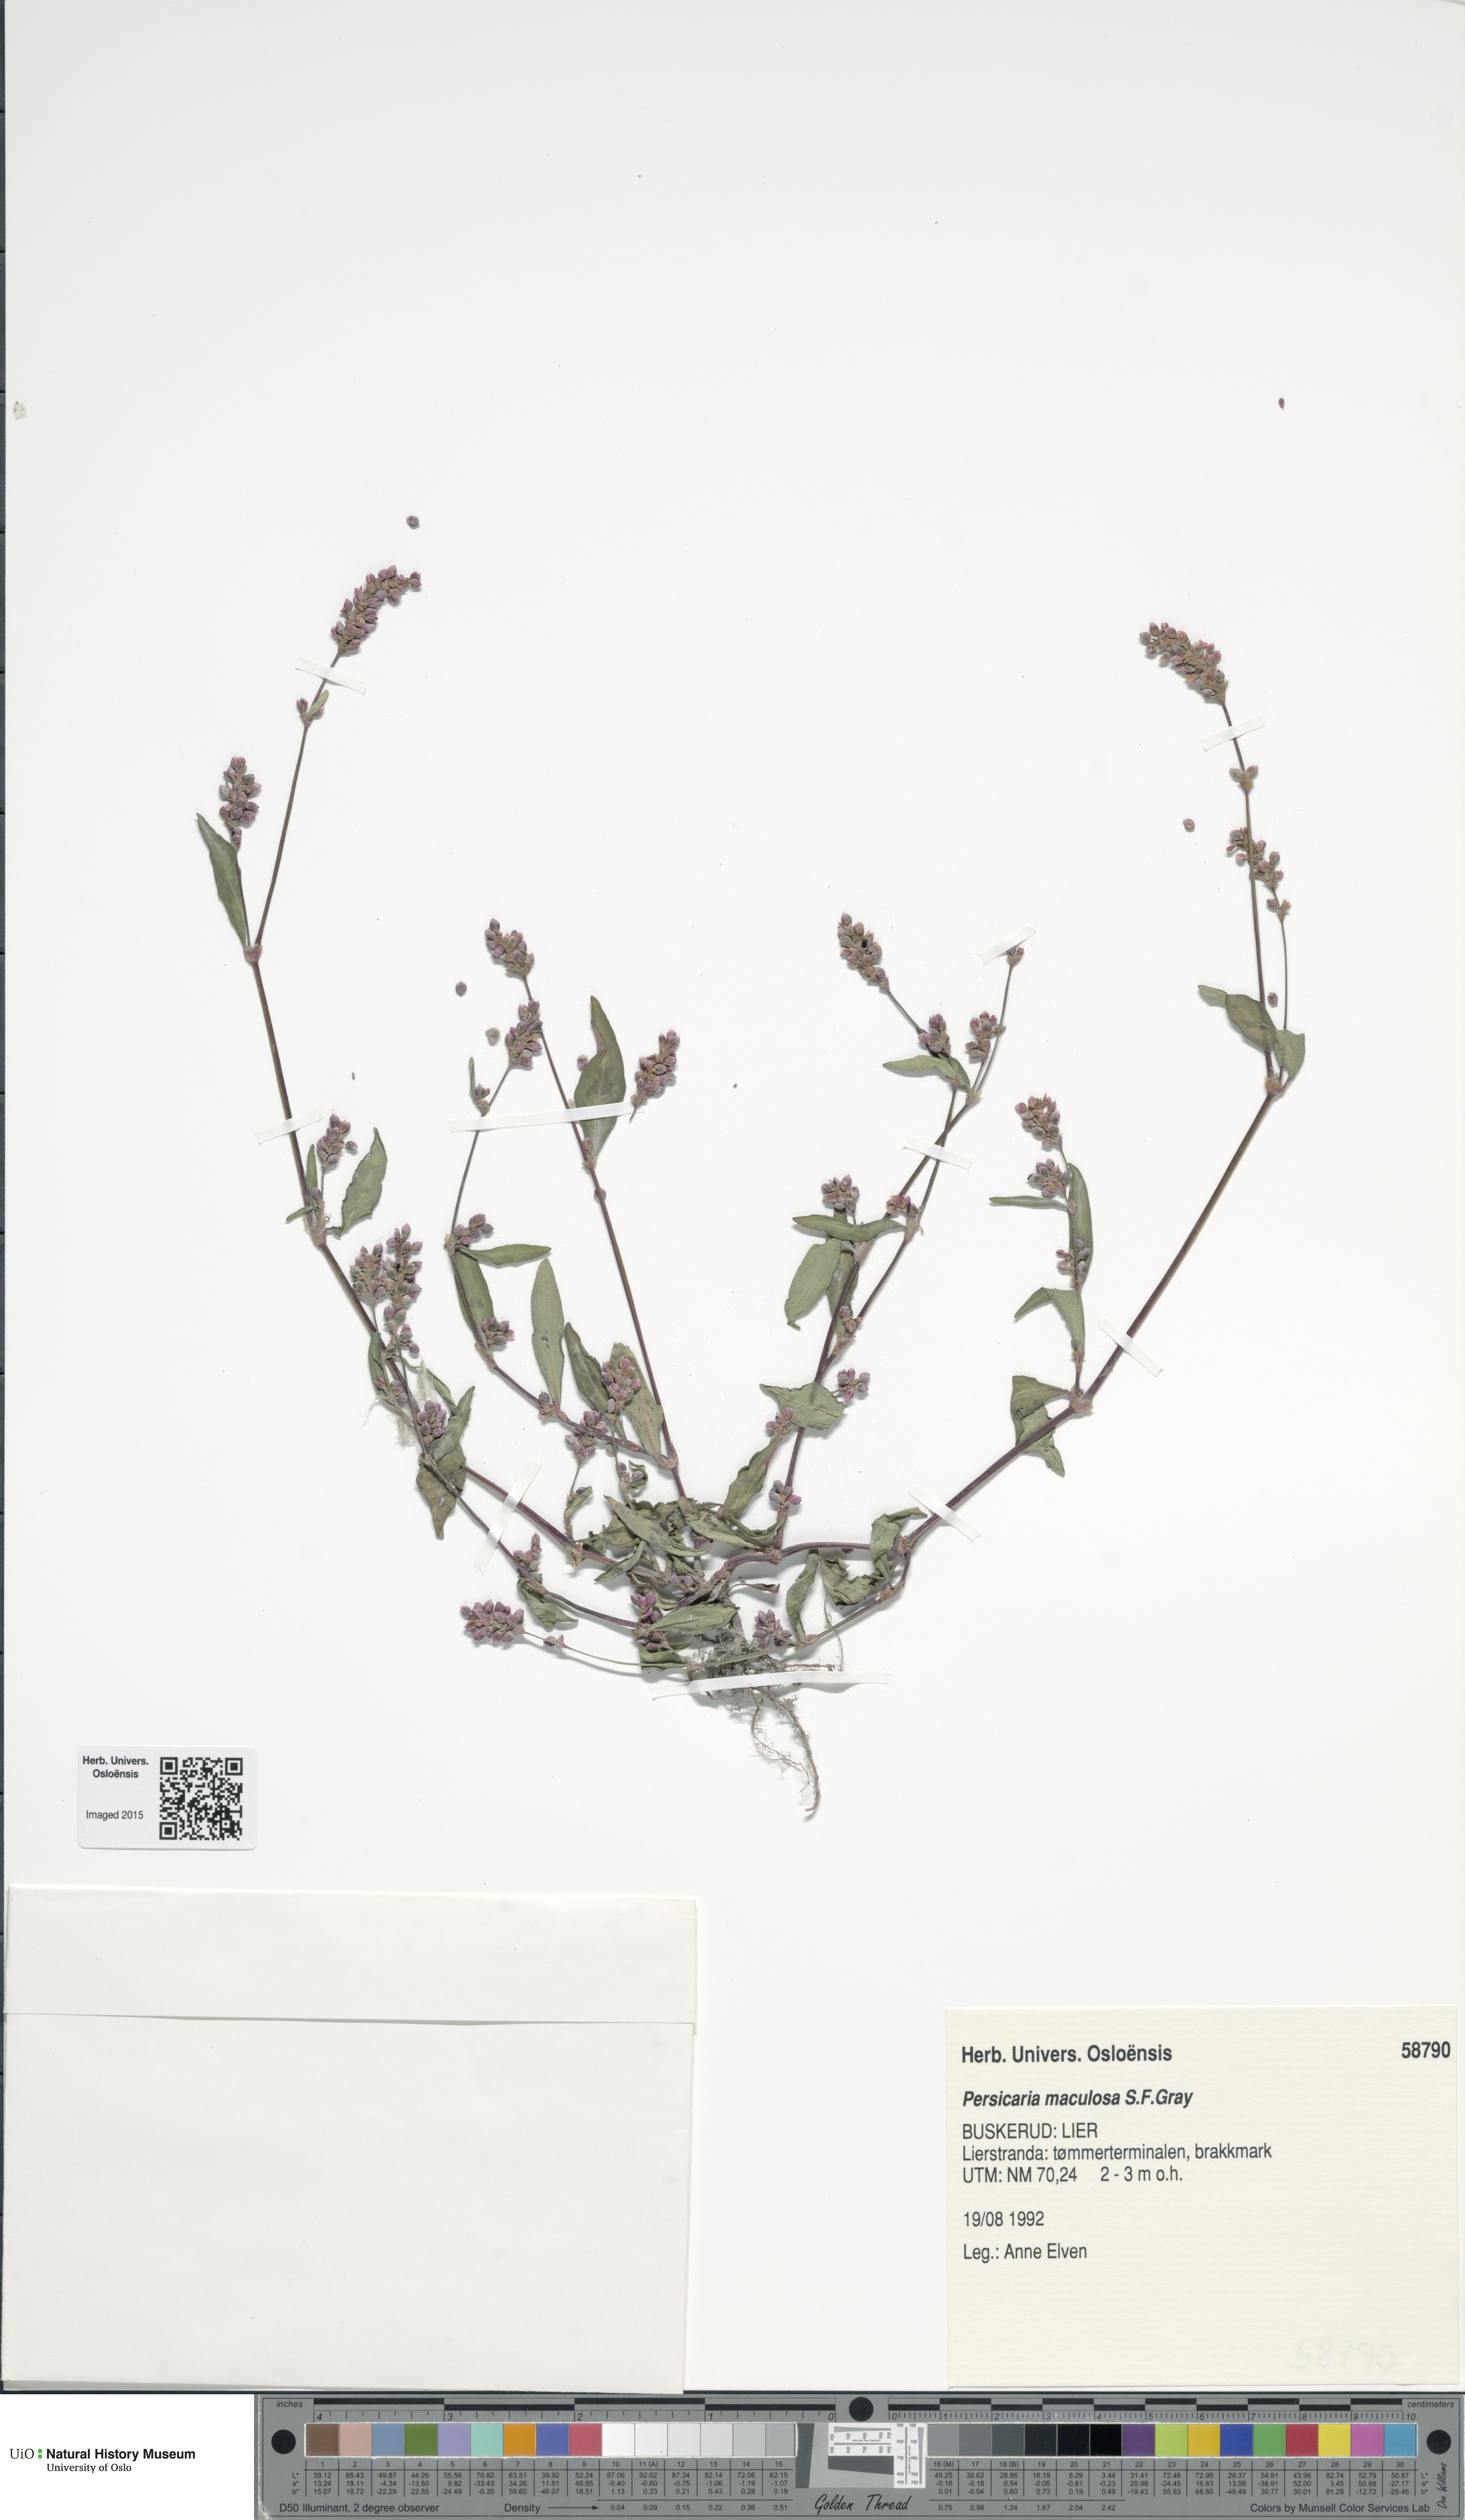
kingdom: Plantae
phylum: Tracheophyta
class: Magnoliopsida
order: Caryophyllales
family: Polygonaceae
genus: Persicaria
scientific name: Persicaria maculosa
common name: Redshank
